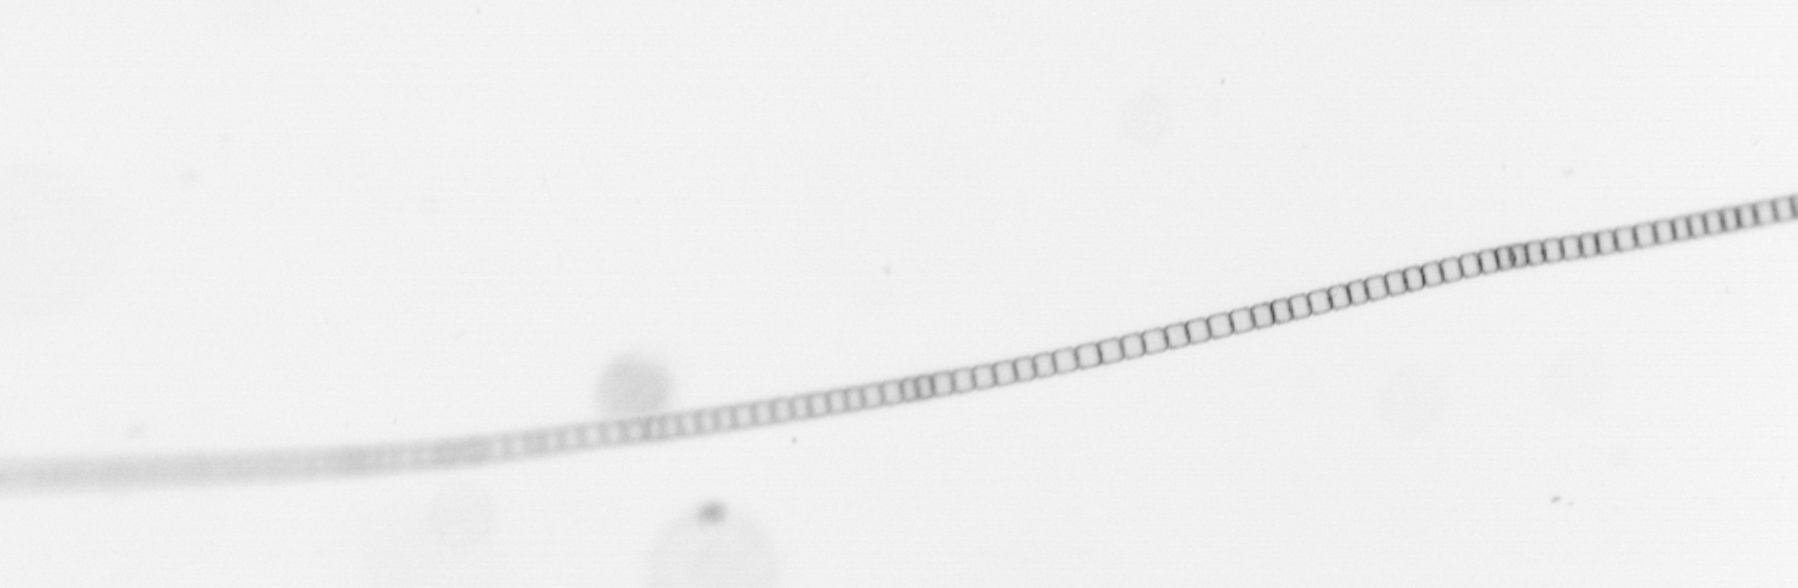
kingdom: Chromista
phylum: Ochrophyta
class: Bacillariophyceae
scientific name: Bacillariophyceae
